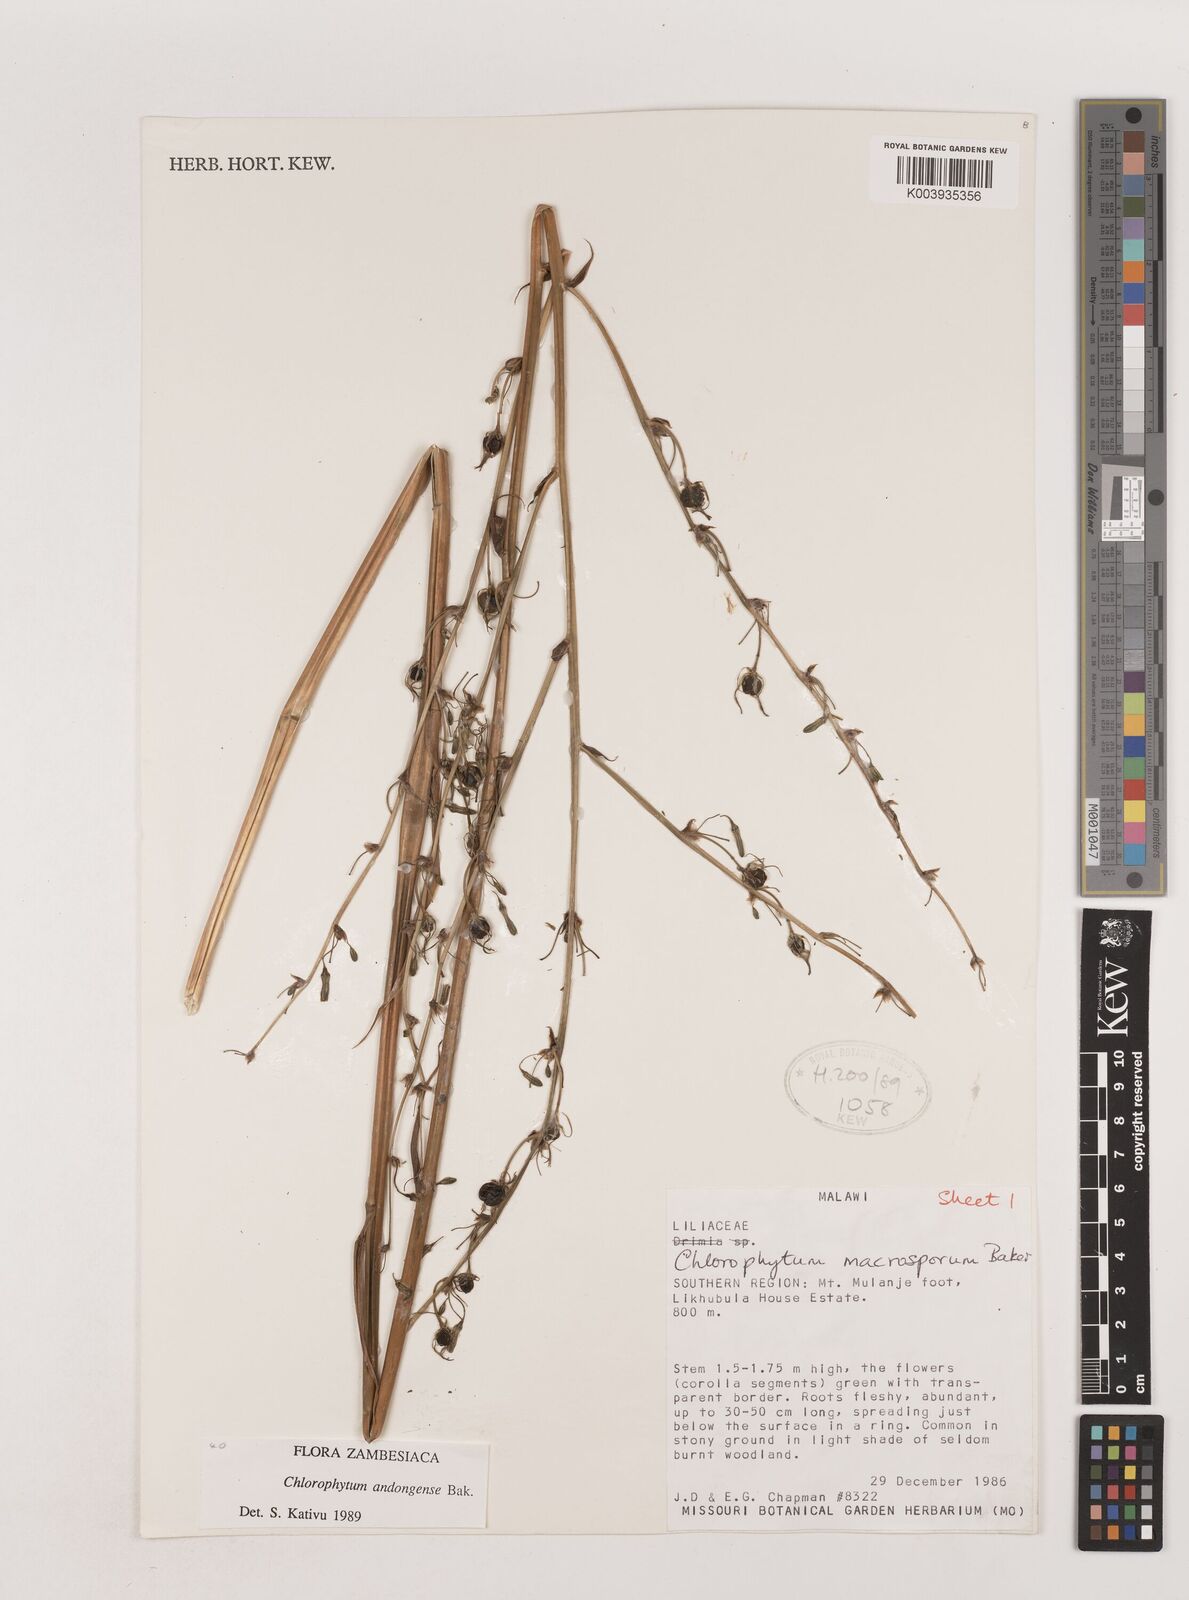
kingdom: Plantae
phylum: Tracheophyta
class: Liliopsida
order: Asparagales
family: Asparagaceae
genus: Chlorophytum
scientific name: Chlorophytum macrosporum
